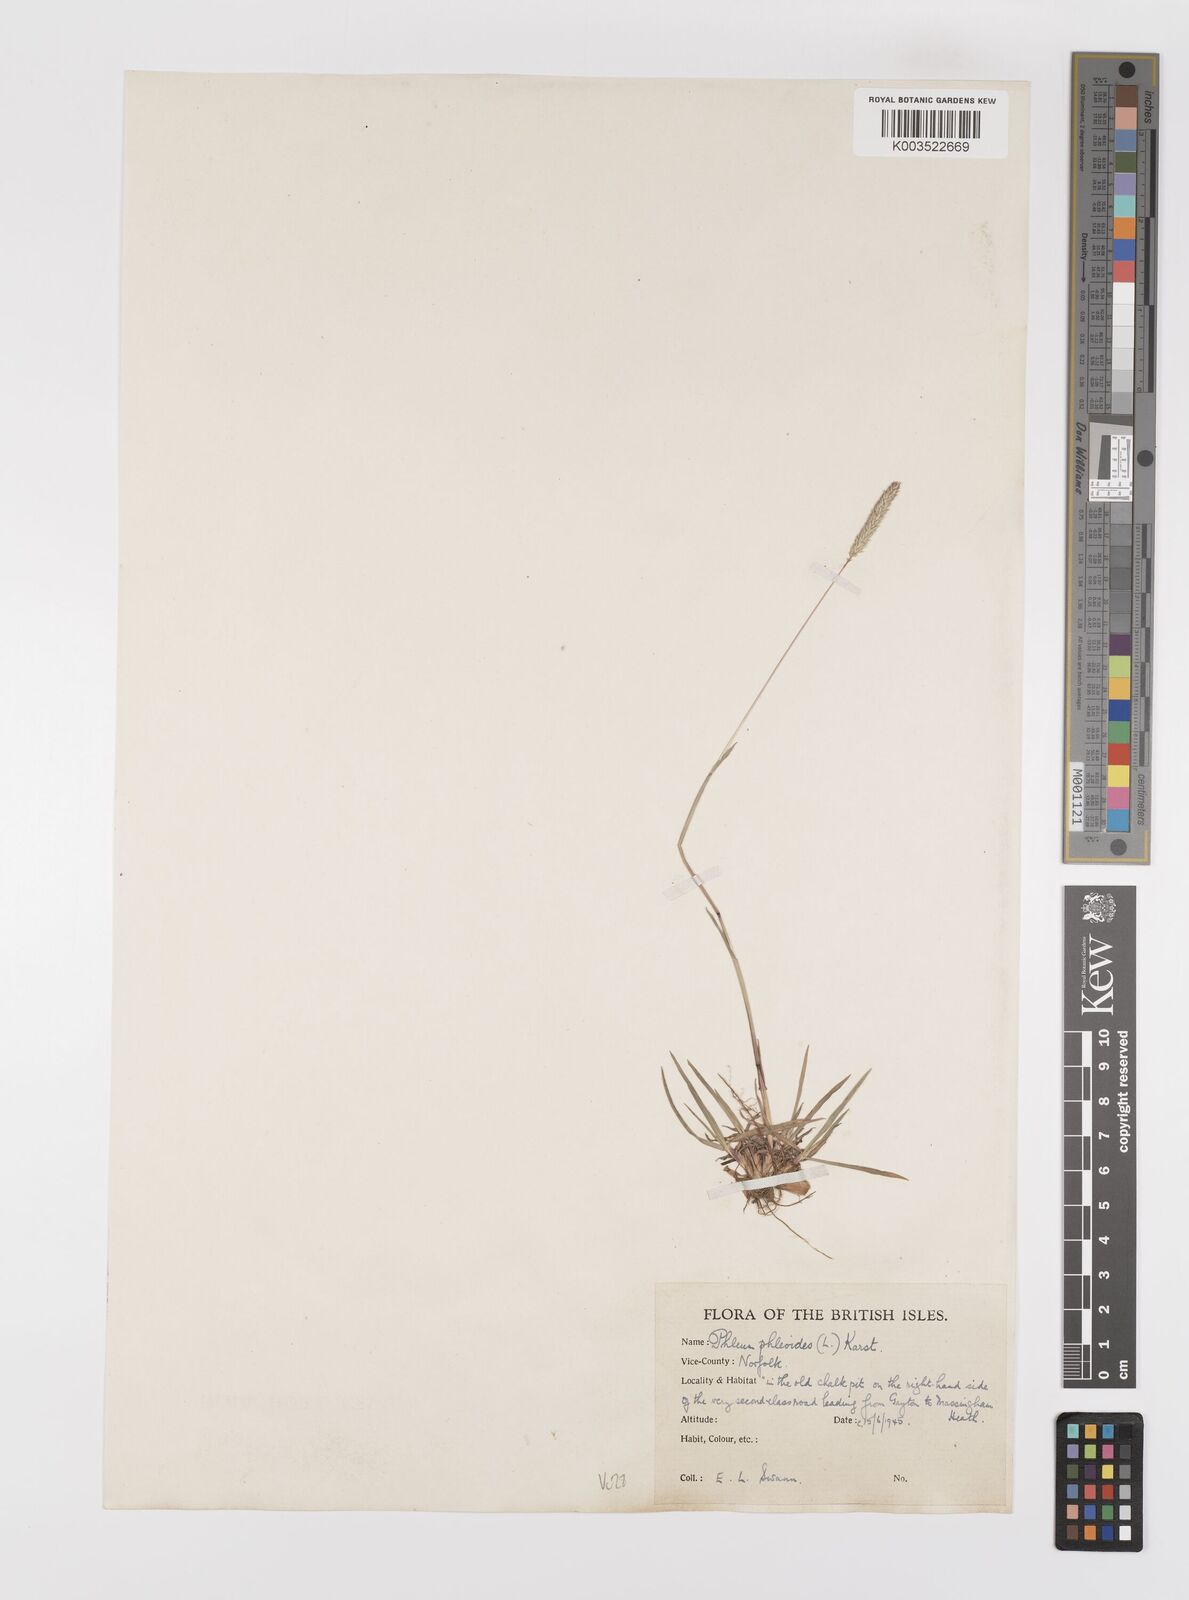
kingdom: Plantae
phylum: Tracheophyta
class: Liliopsida
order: Poales
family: Poaceae
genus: Phleum
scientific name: Phleum phleoides
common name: Purple-stem cat's-tail
